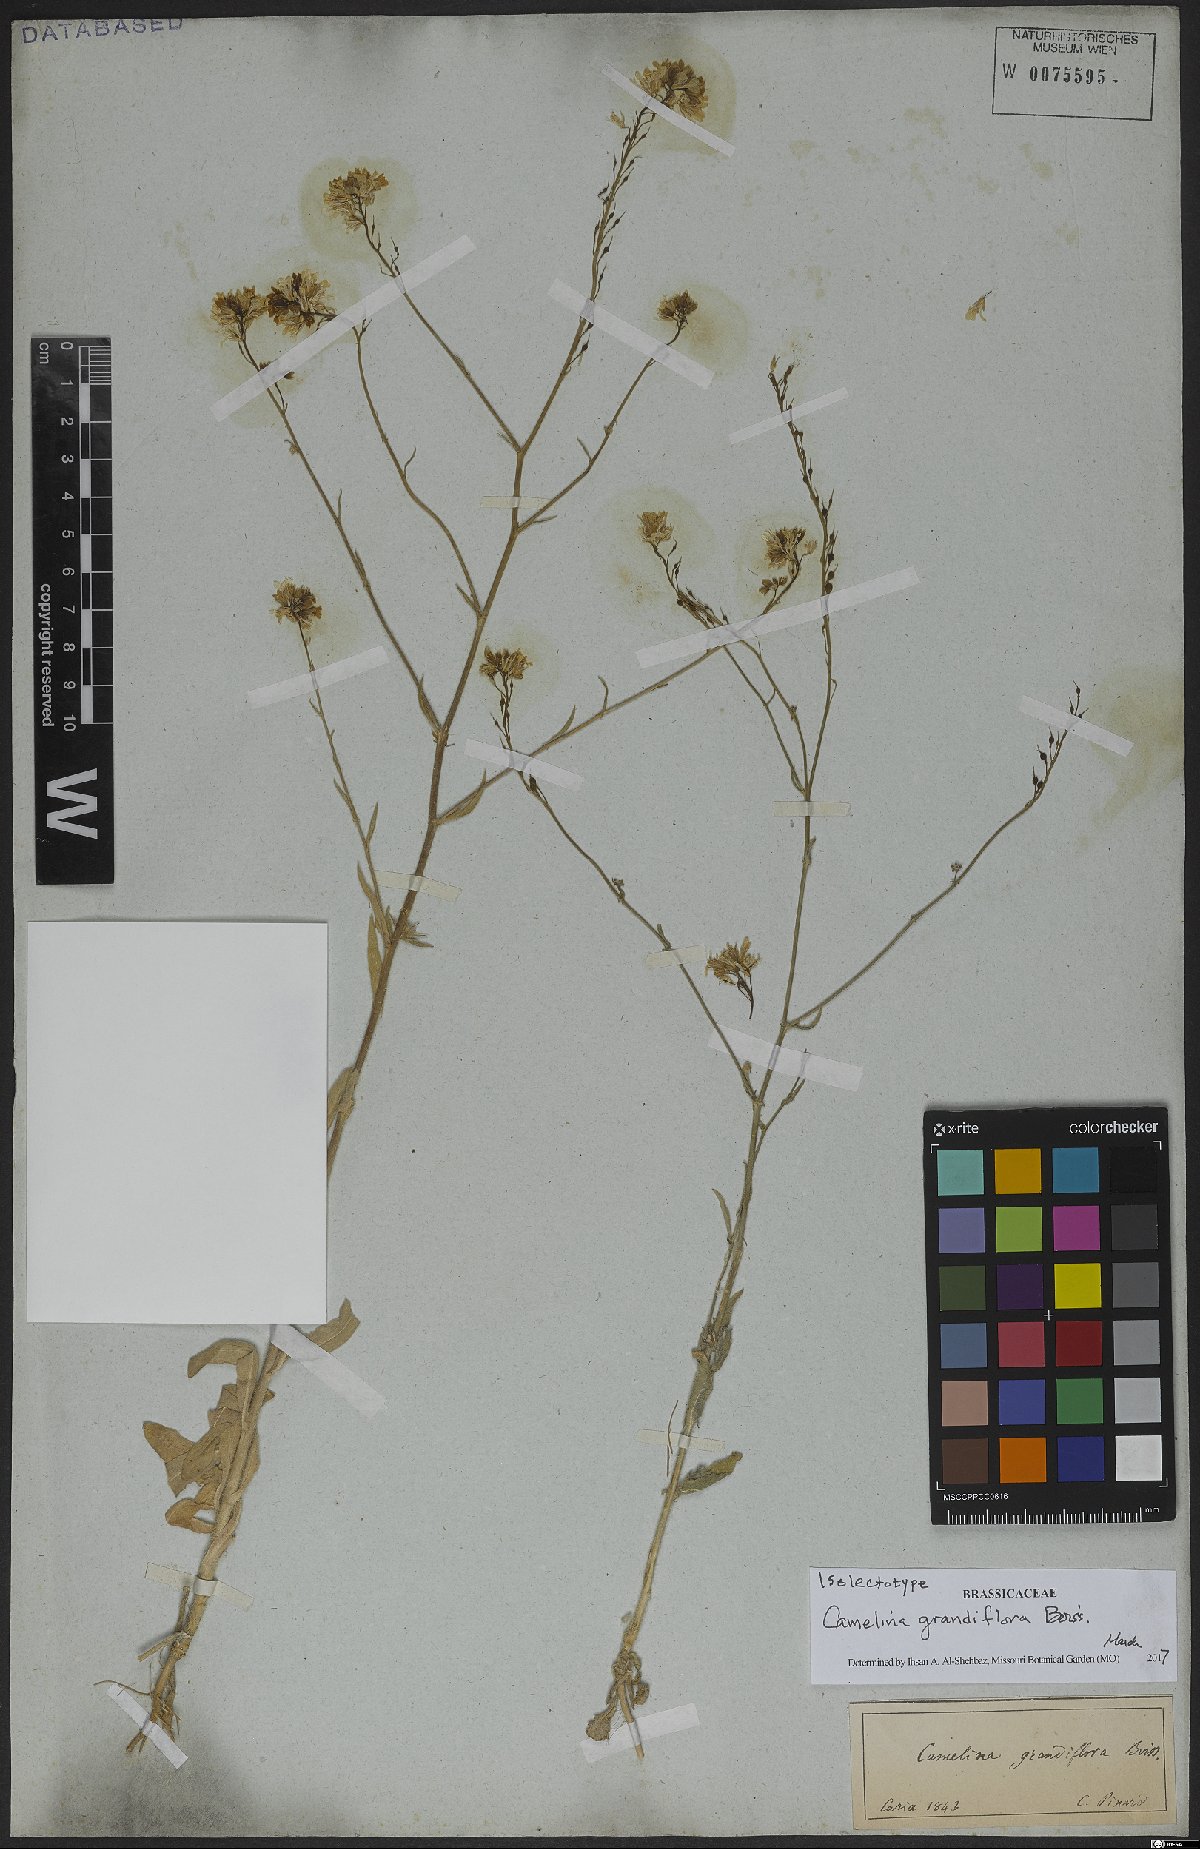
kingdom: Plantae
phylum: Tracheophyta
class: Magnoliopsida
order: Brassicales
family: Brassicaceae
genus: Camelina
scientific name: Camelina grandiflora
